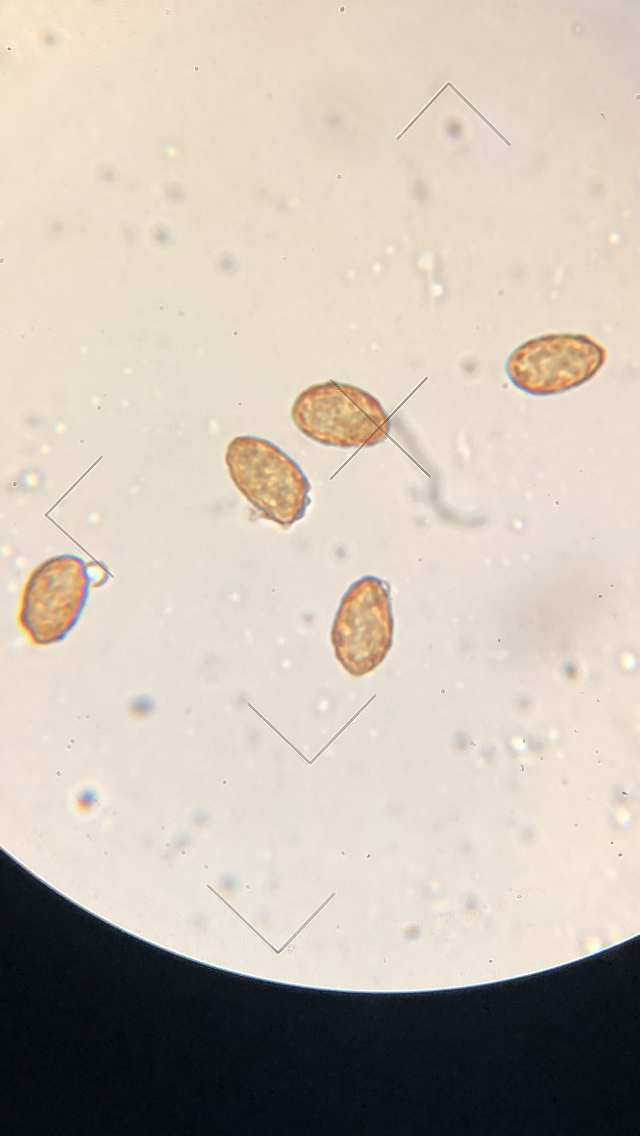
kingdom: Fungi
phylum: Basidiomycota
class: Agaricomycetes
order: Agaricales
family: Cortinariaceae
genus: Cortinarius
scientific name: Cortinarius trivialis
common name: brunslimet slørhat
